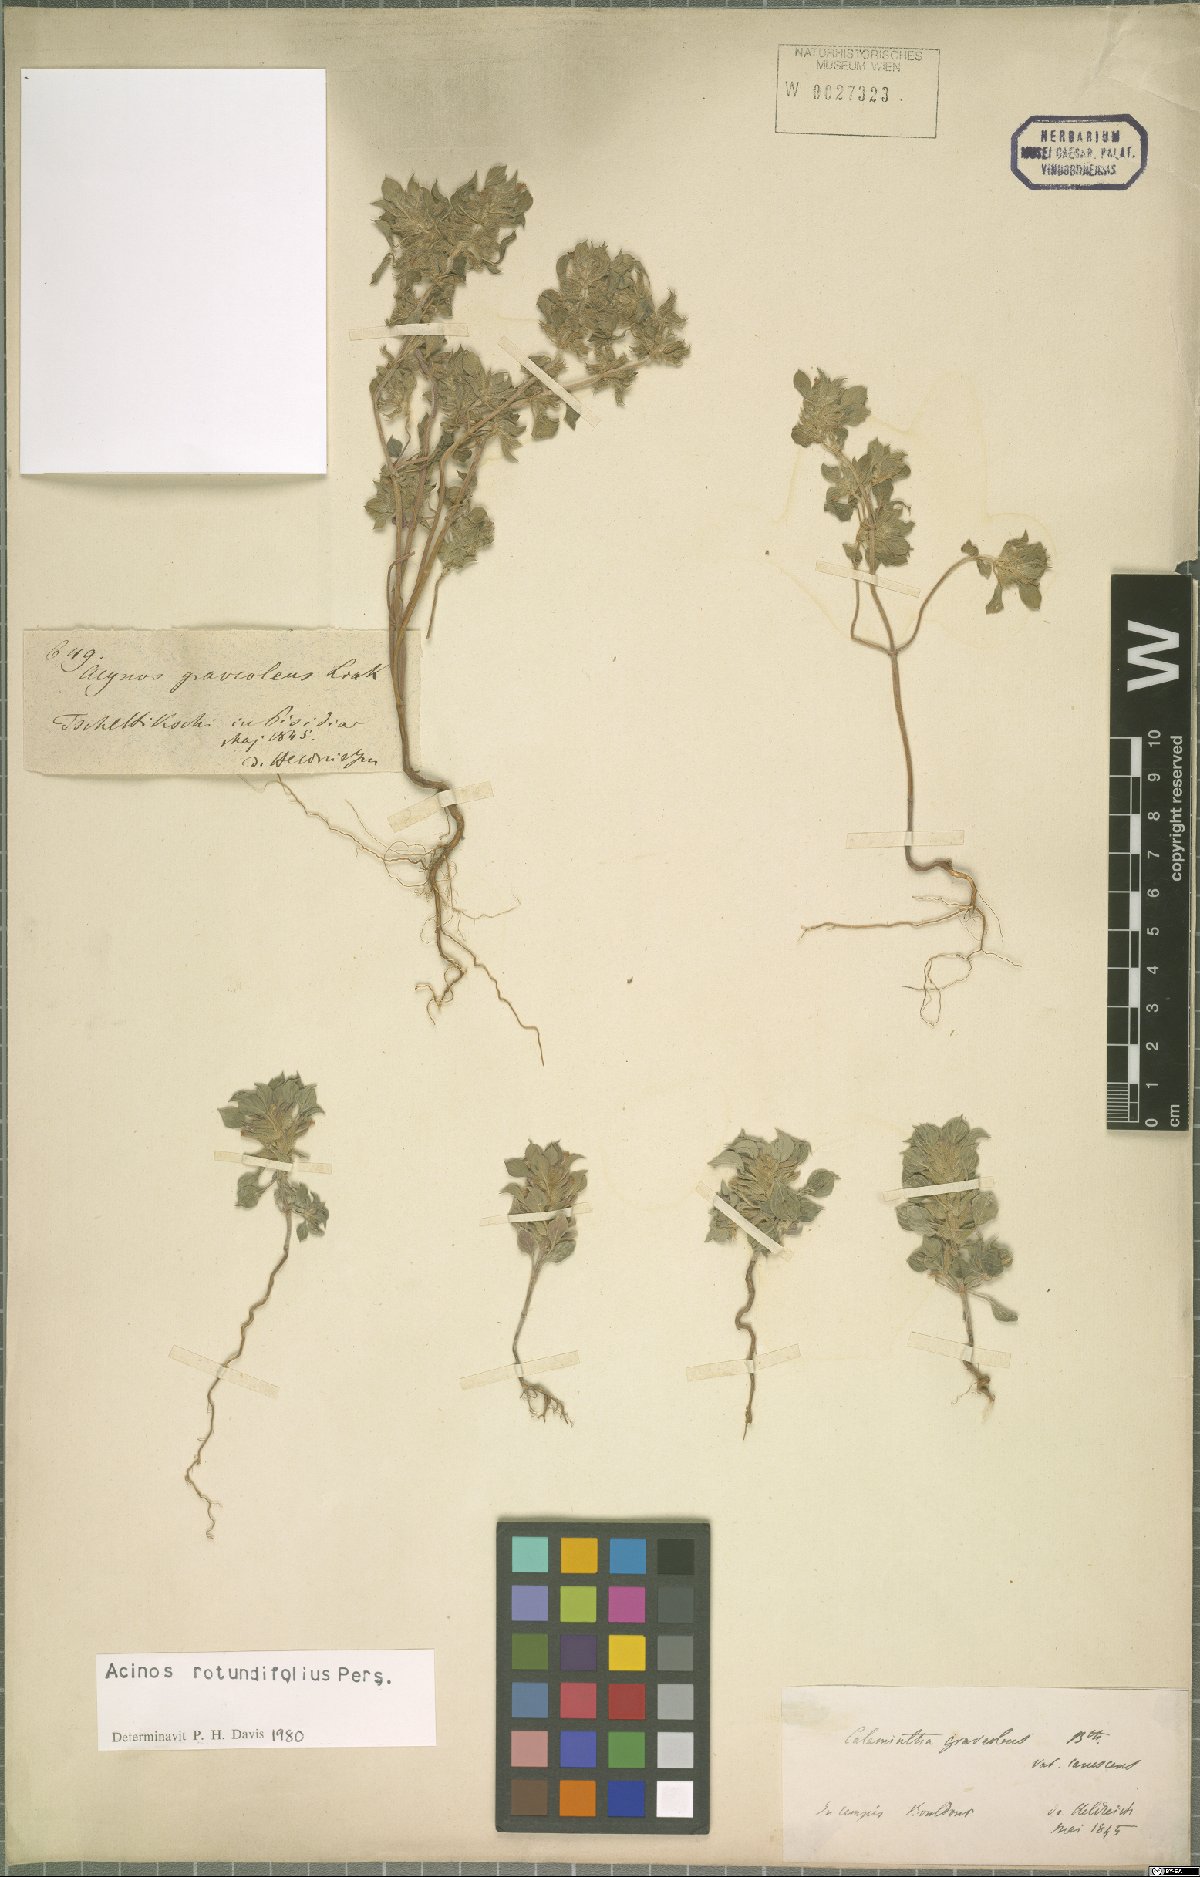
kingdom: Plantae
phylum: Tracheophyta
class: Magnoliopsida
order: Lamiales
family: Lamiaceae
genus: Clinopodium
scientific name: Clinopodium graveolens
